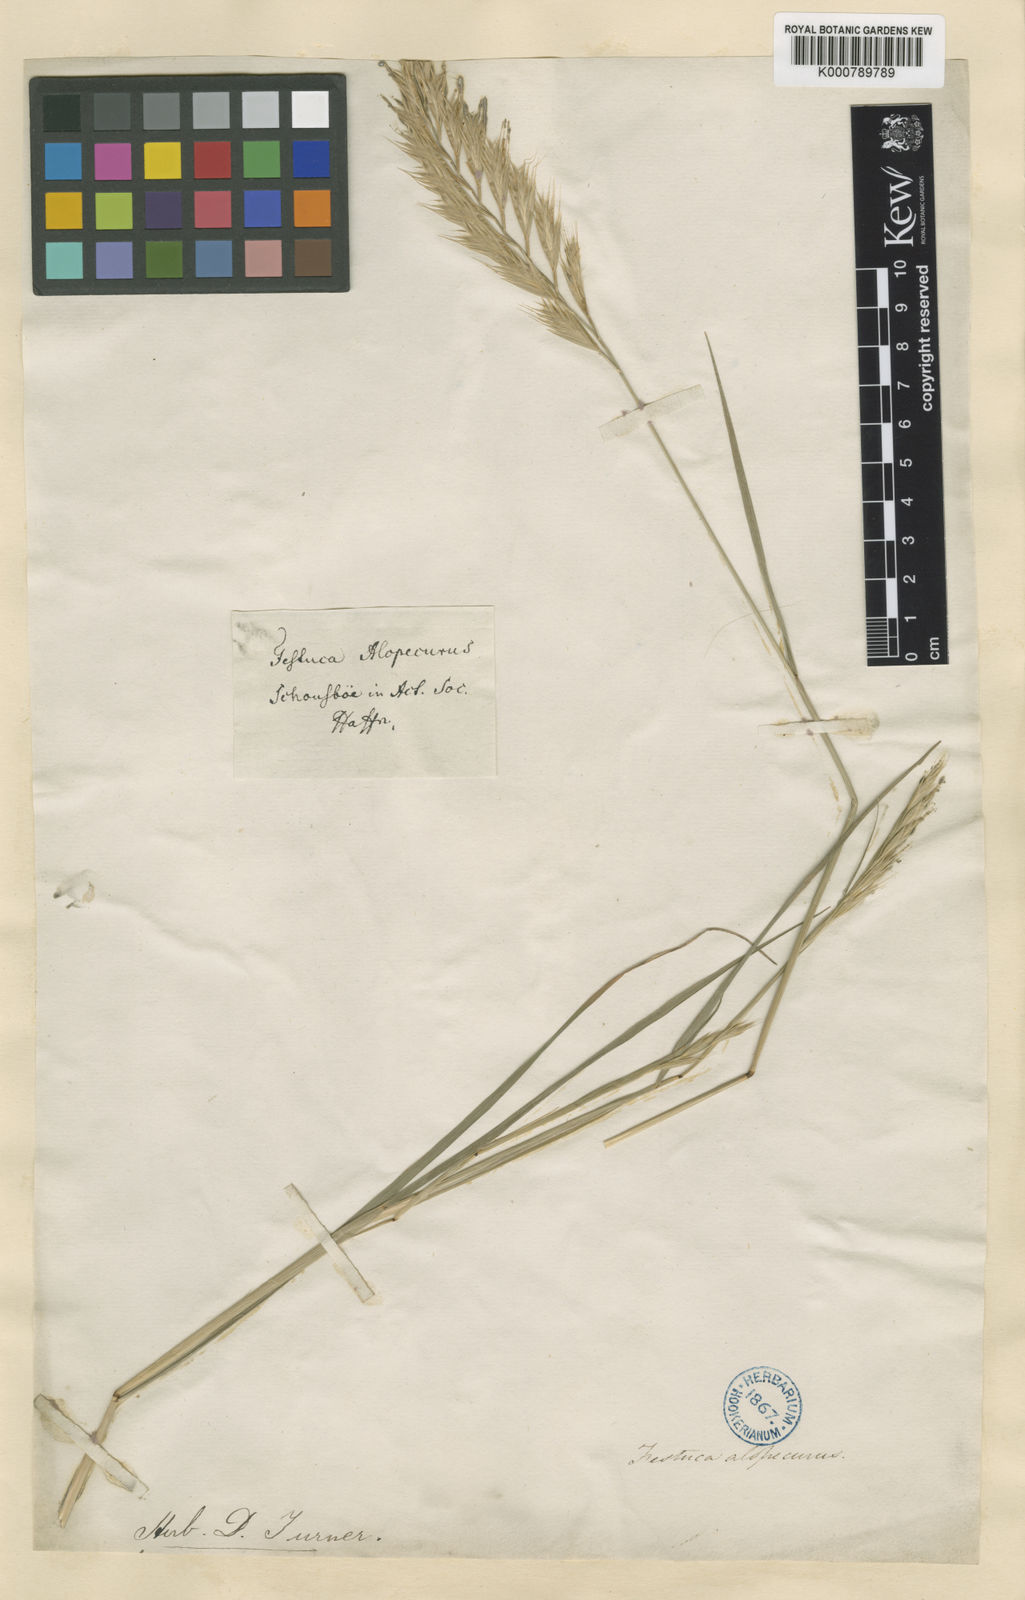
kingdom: Plantae
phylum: Tracheophyta
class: Liliopsida
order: Poales
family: Poaceae
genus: Festuca
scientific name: Festuca
